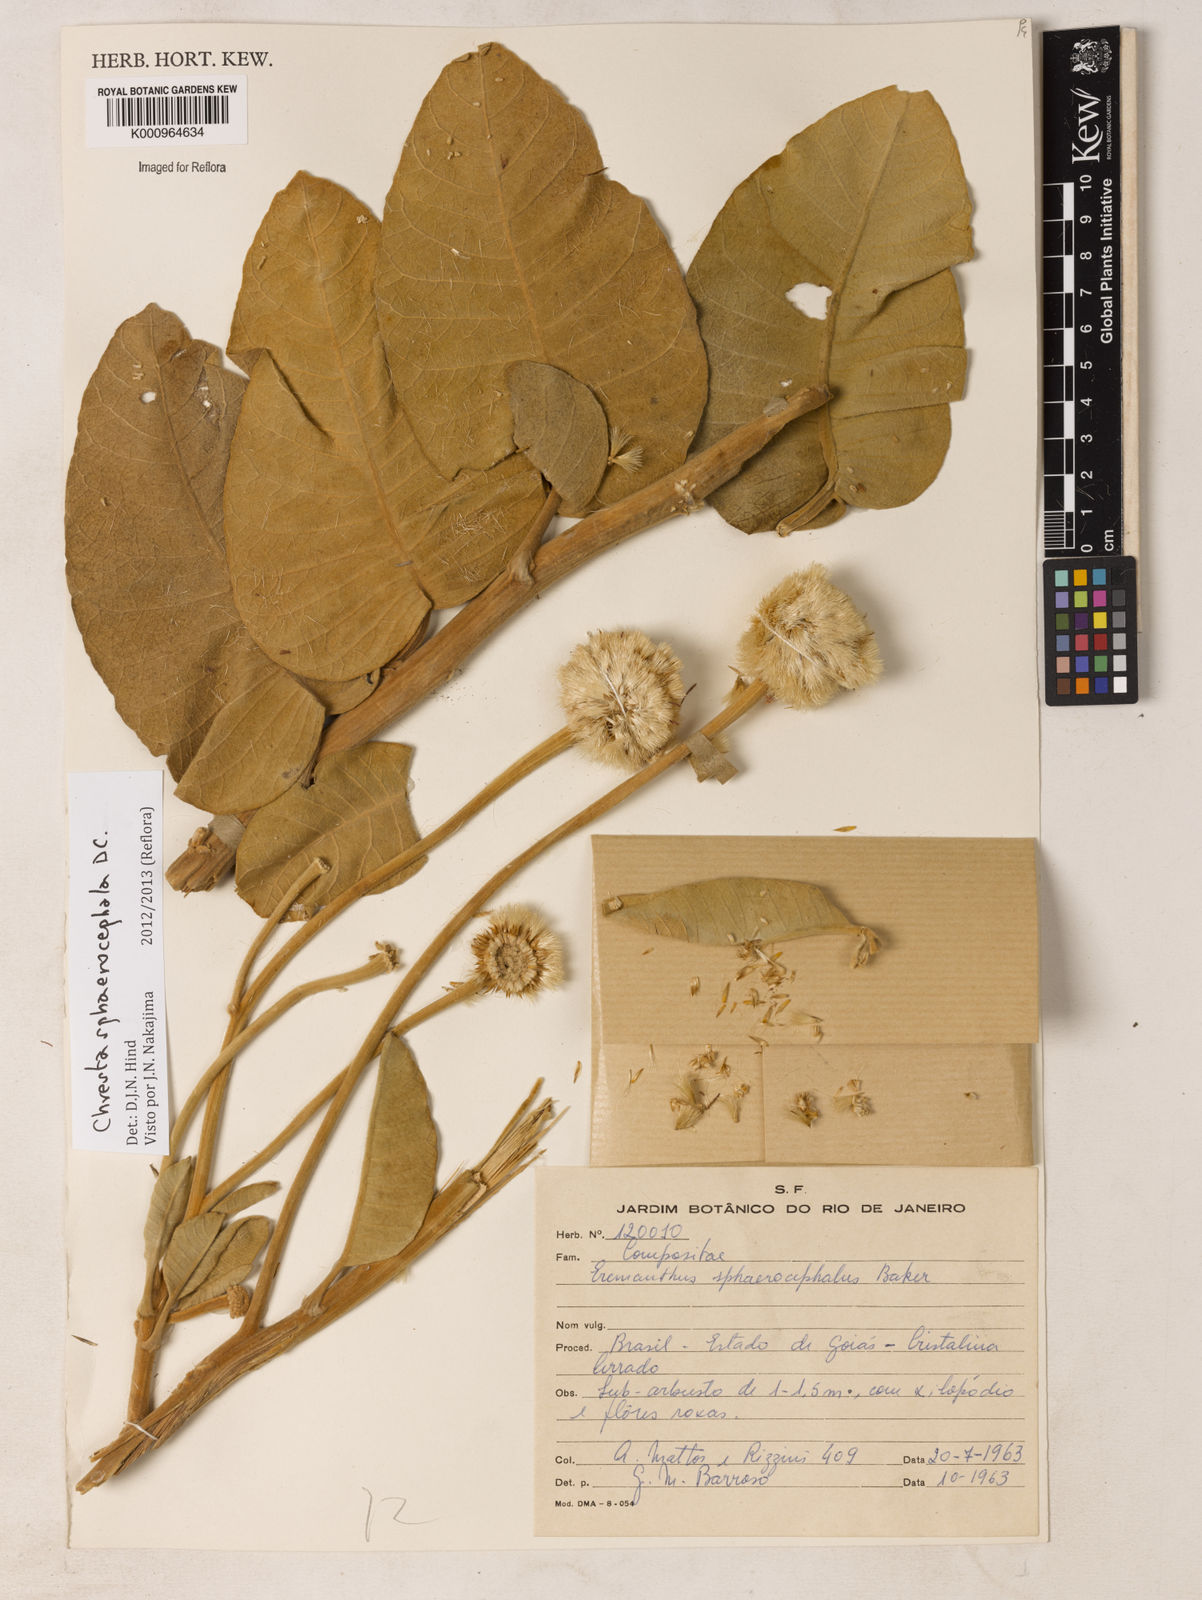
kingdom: Plantae
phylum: Tracheophyta
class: Magnoliopsida
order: Asterales
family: Asteraceae
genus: Chresta
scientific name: Chresta sphaerocephala
